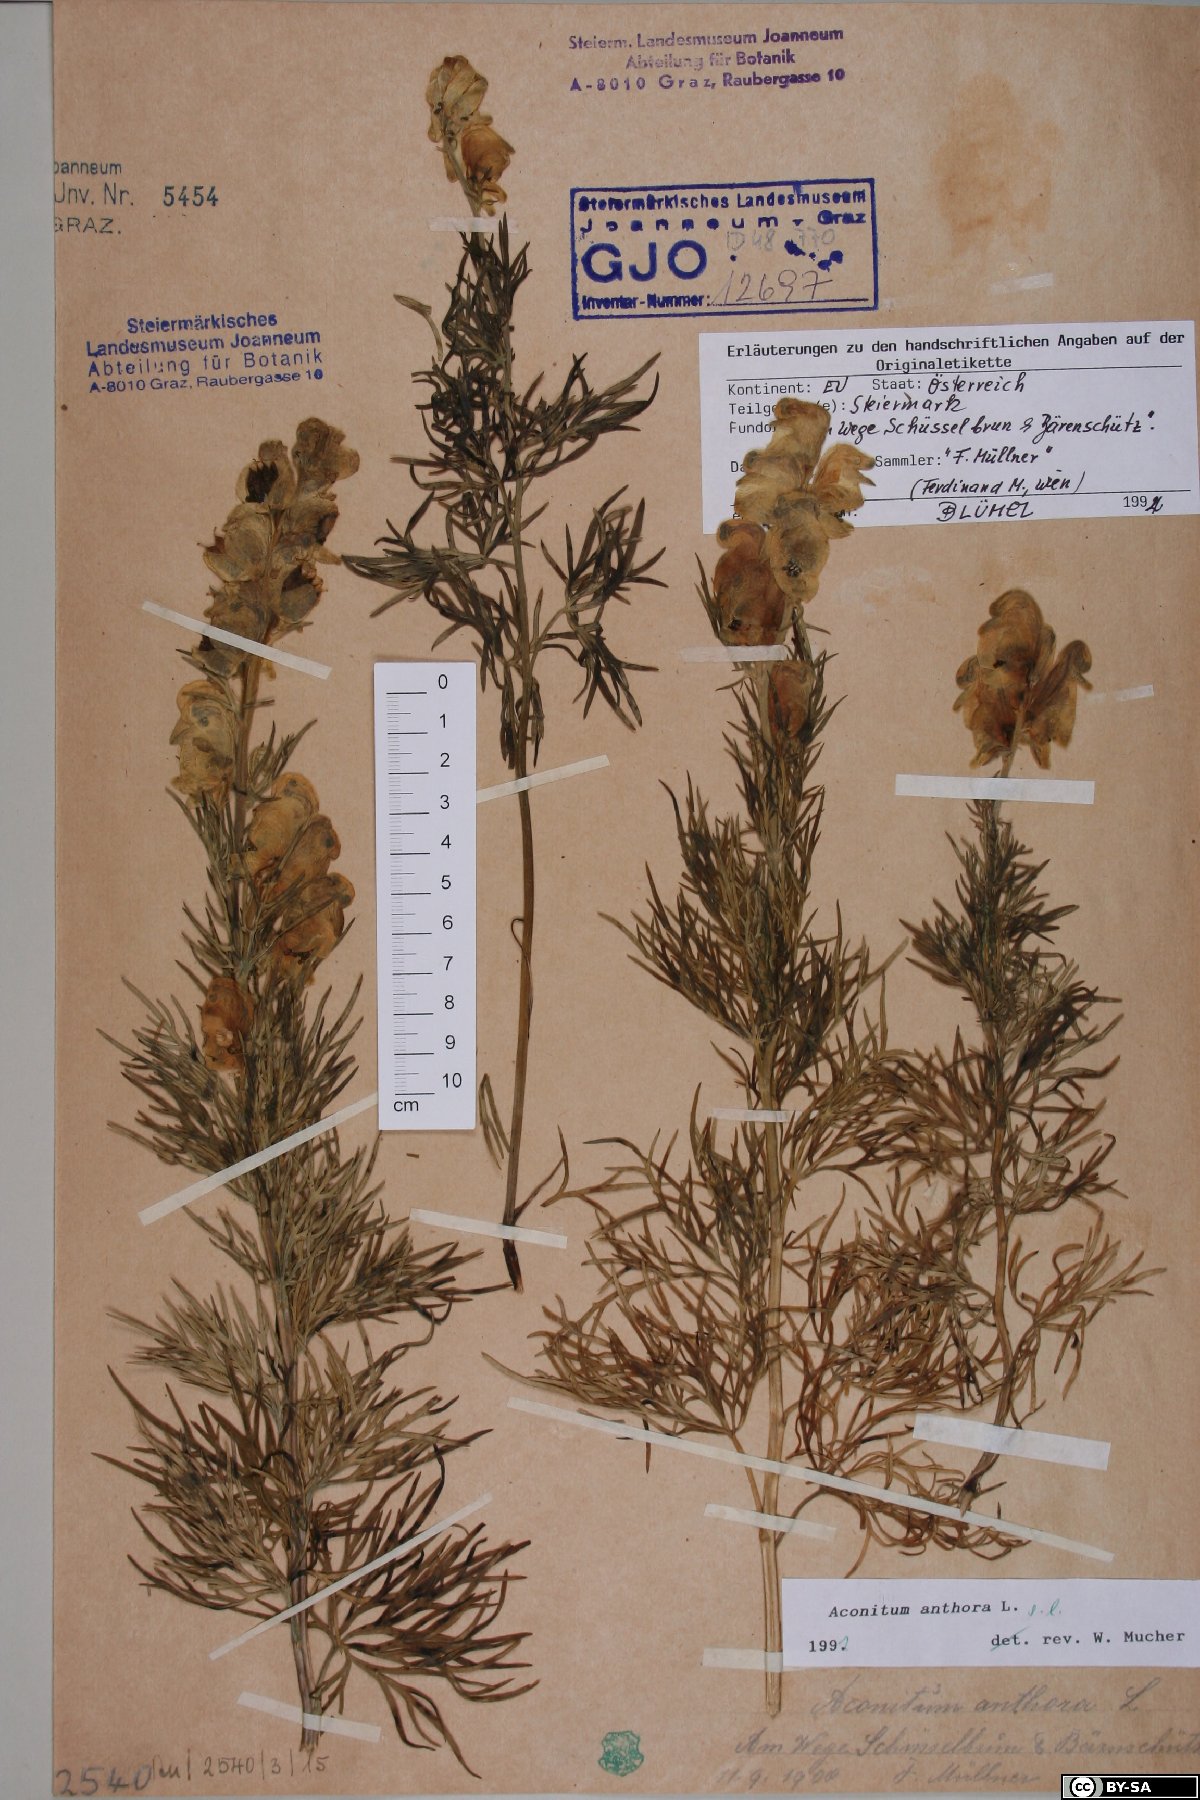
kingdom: Plantae
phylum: Tracheophyta
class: Magnoliopsida
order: Ranunculales
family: Ranunculaceae
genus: Aconitum
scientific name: Aconitum anthora
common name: Yellow monkshood
